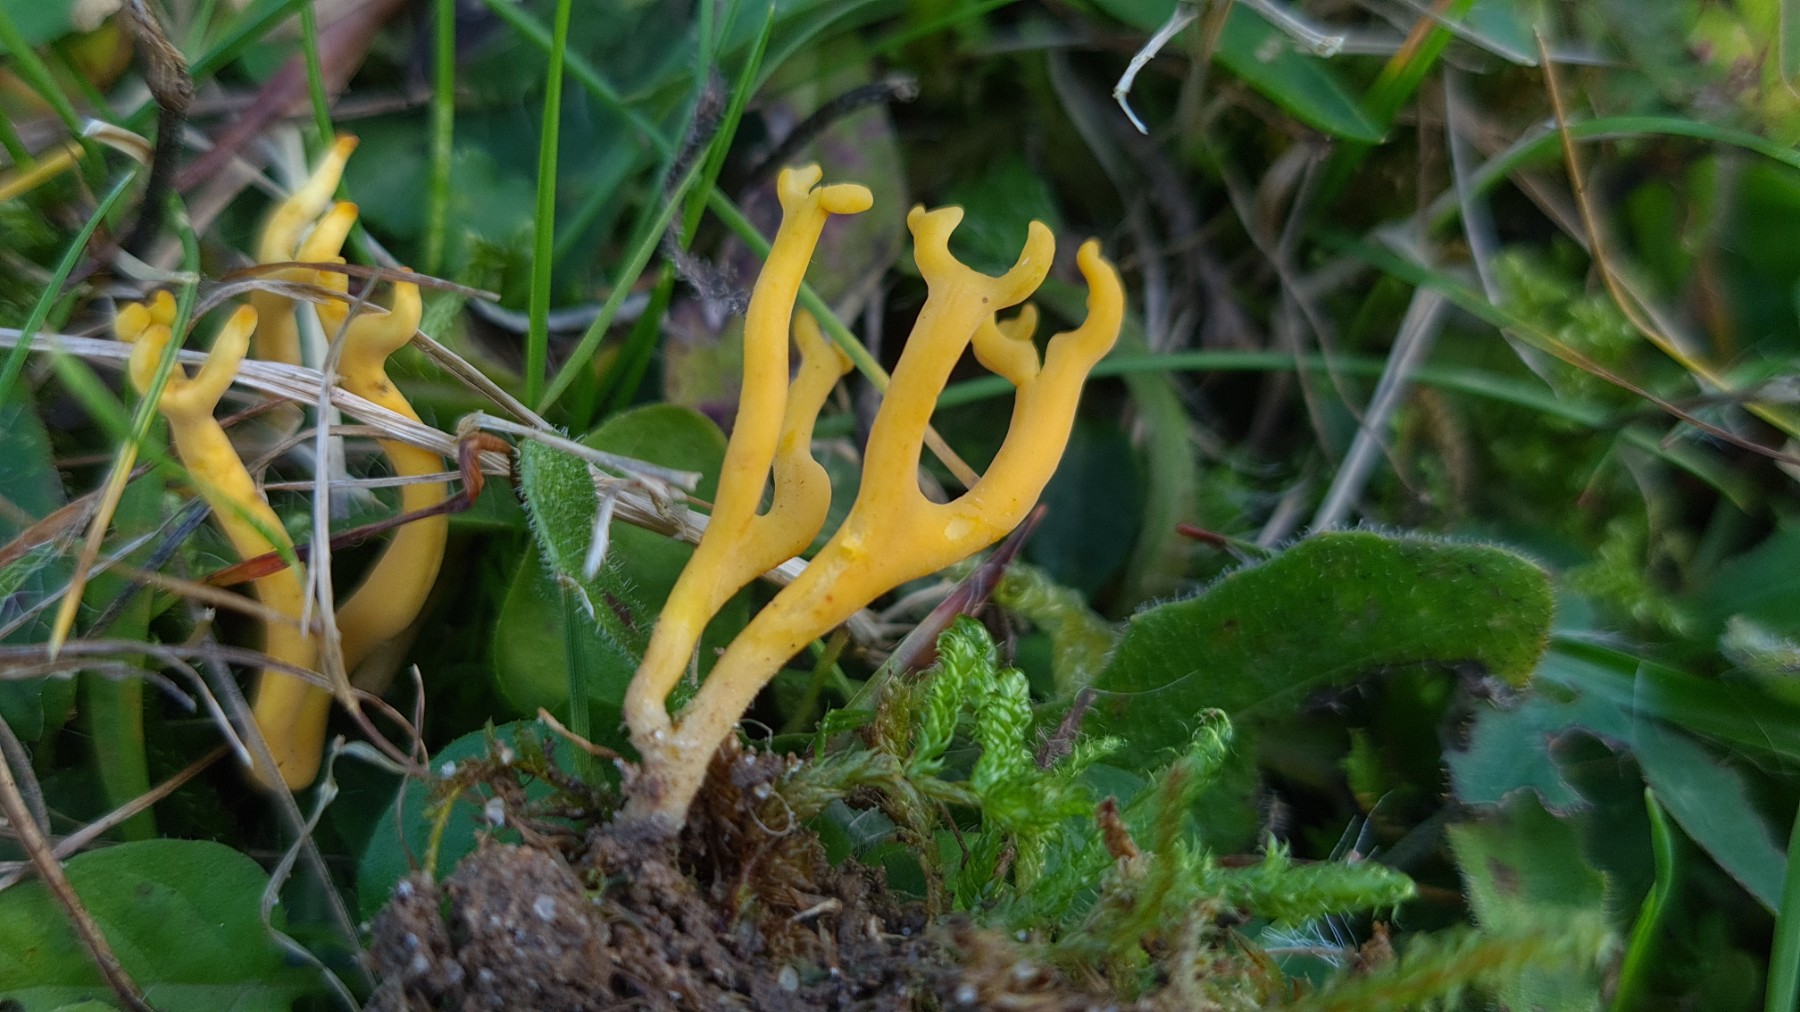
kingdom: Fungi
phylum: Basidiomycota
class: Agaricomycetes
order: Agaricales
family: Clavariaceae
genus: Clavulinopsis
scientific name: Clavulinopsis corniculata
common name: eng-køllesvamp
